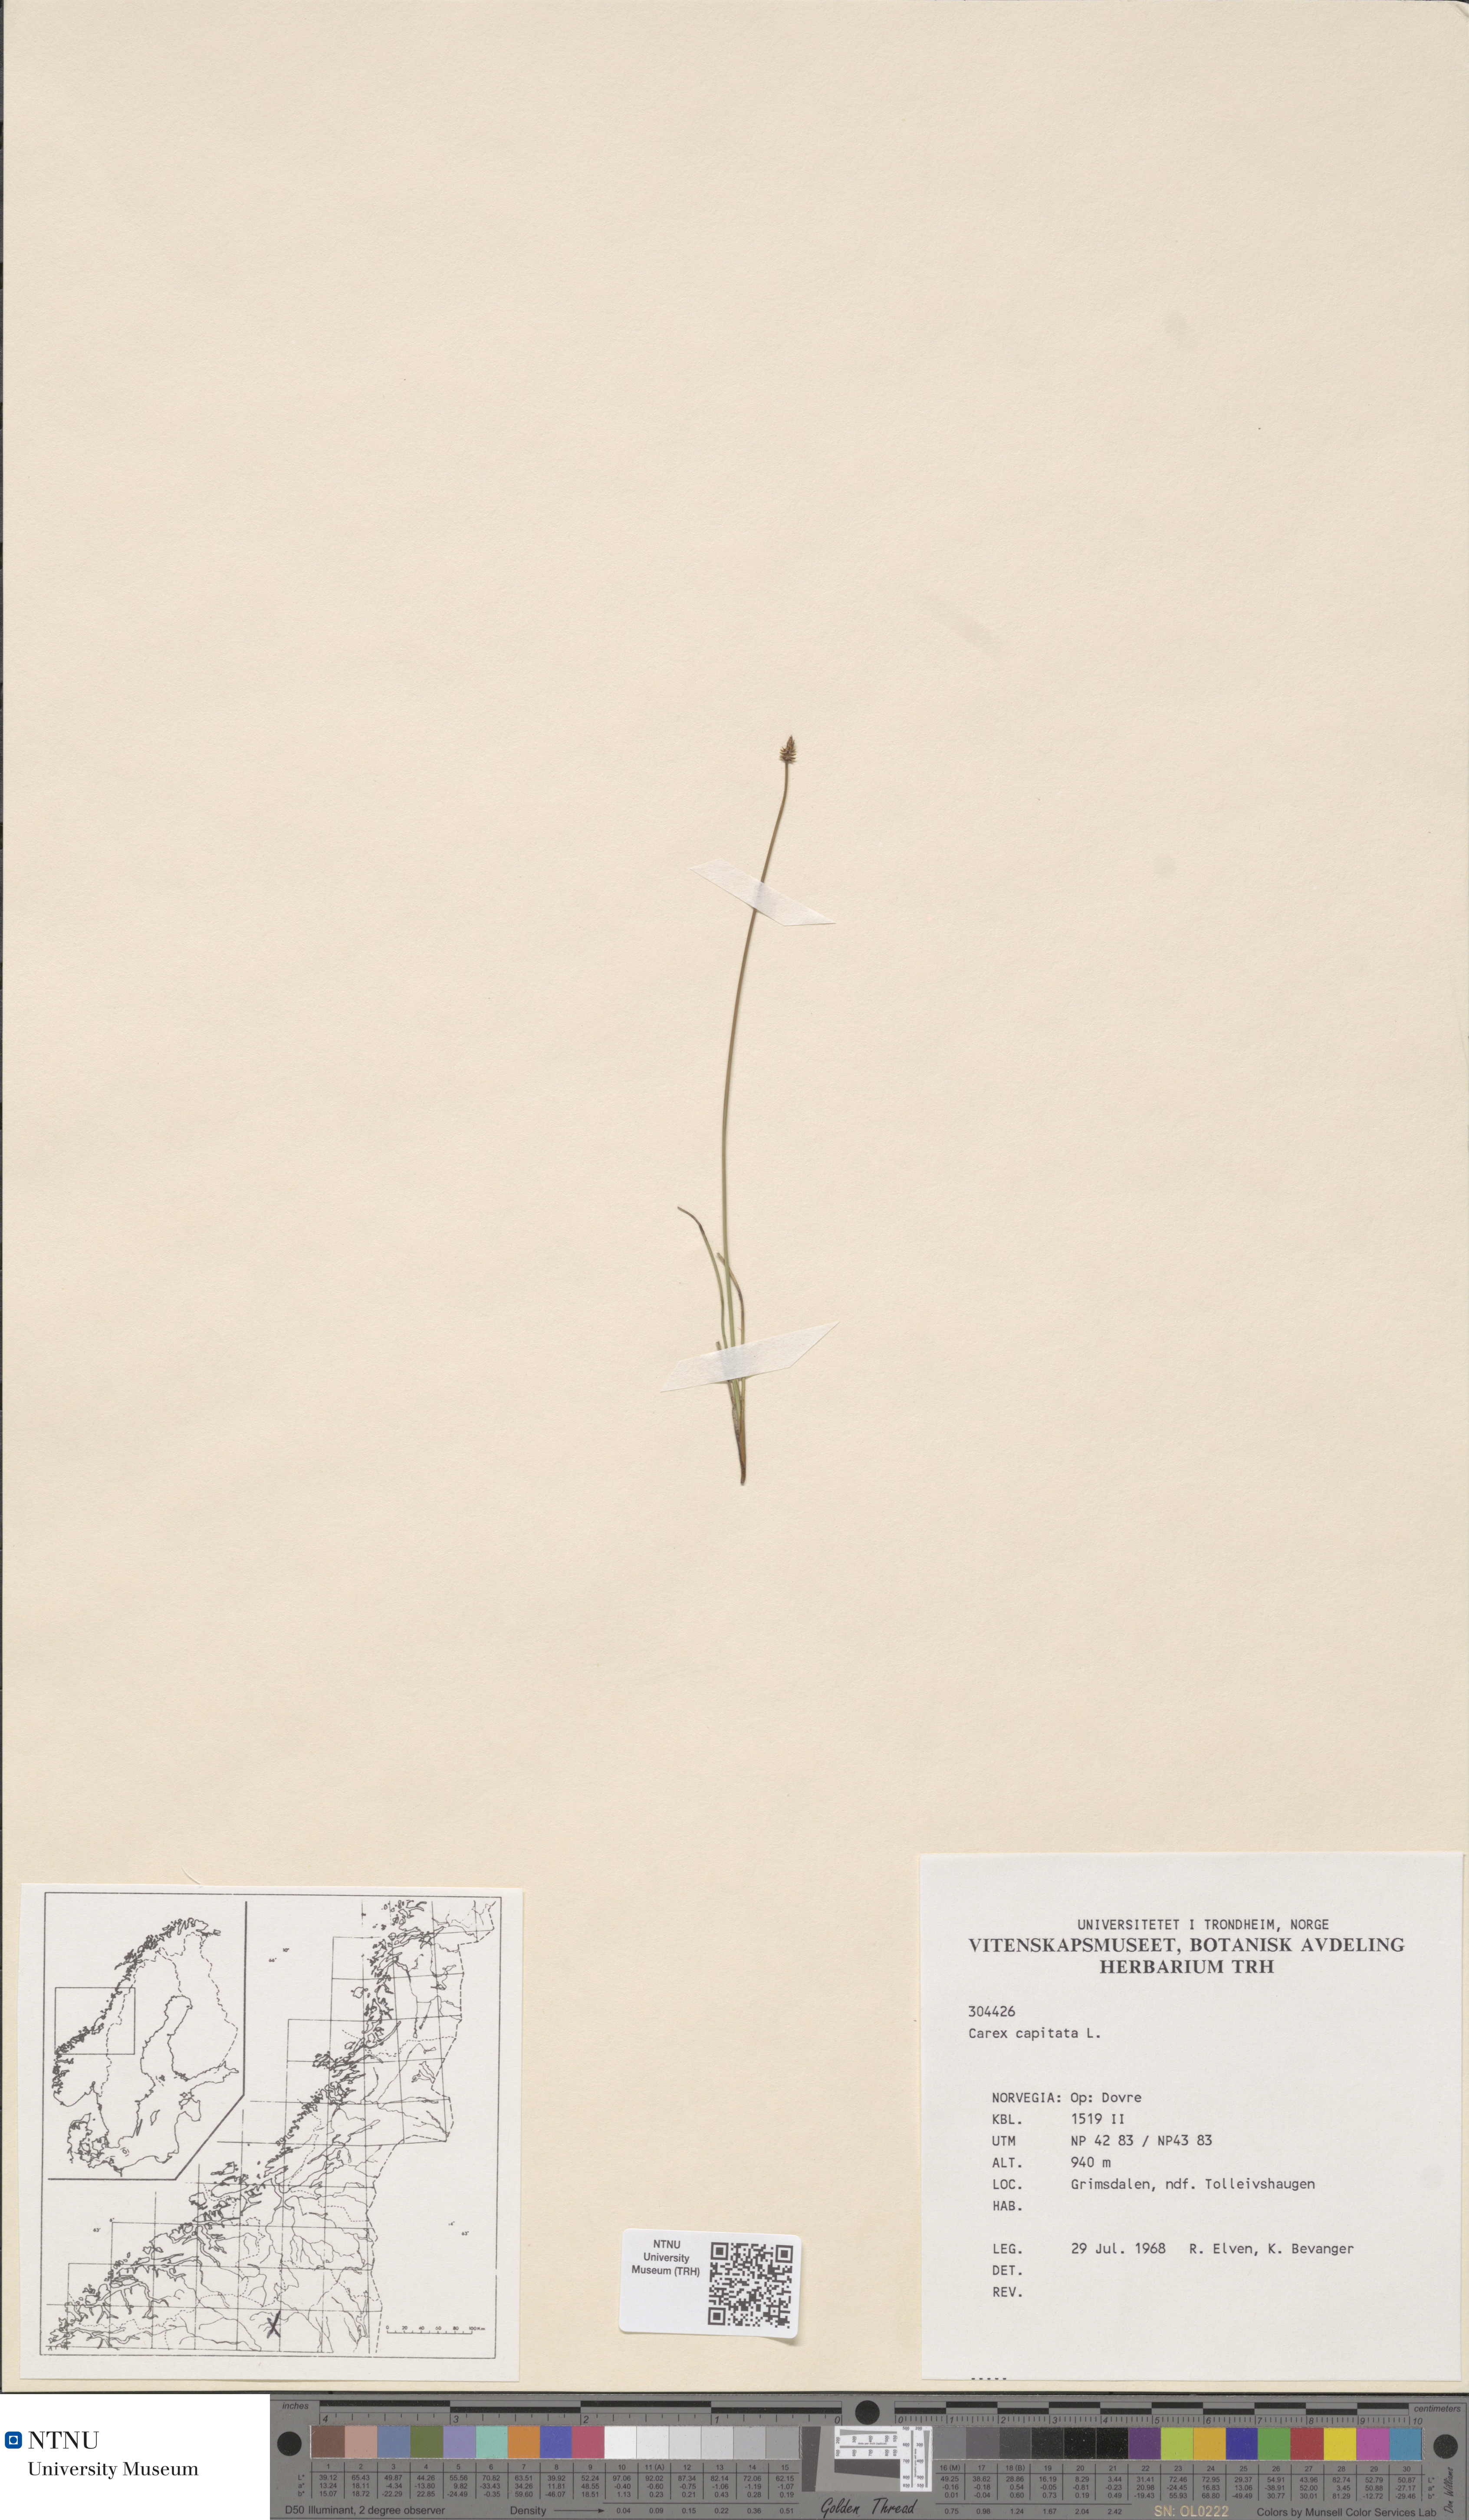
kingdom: Plantae
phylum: Tracheophyta
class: Liliopsida
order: Poales
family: Cyperaceae
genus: Carex
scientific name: Carex capitata
